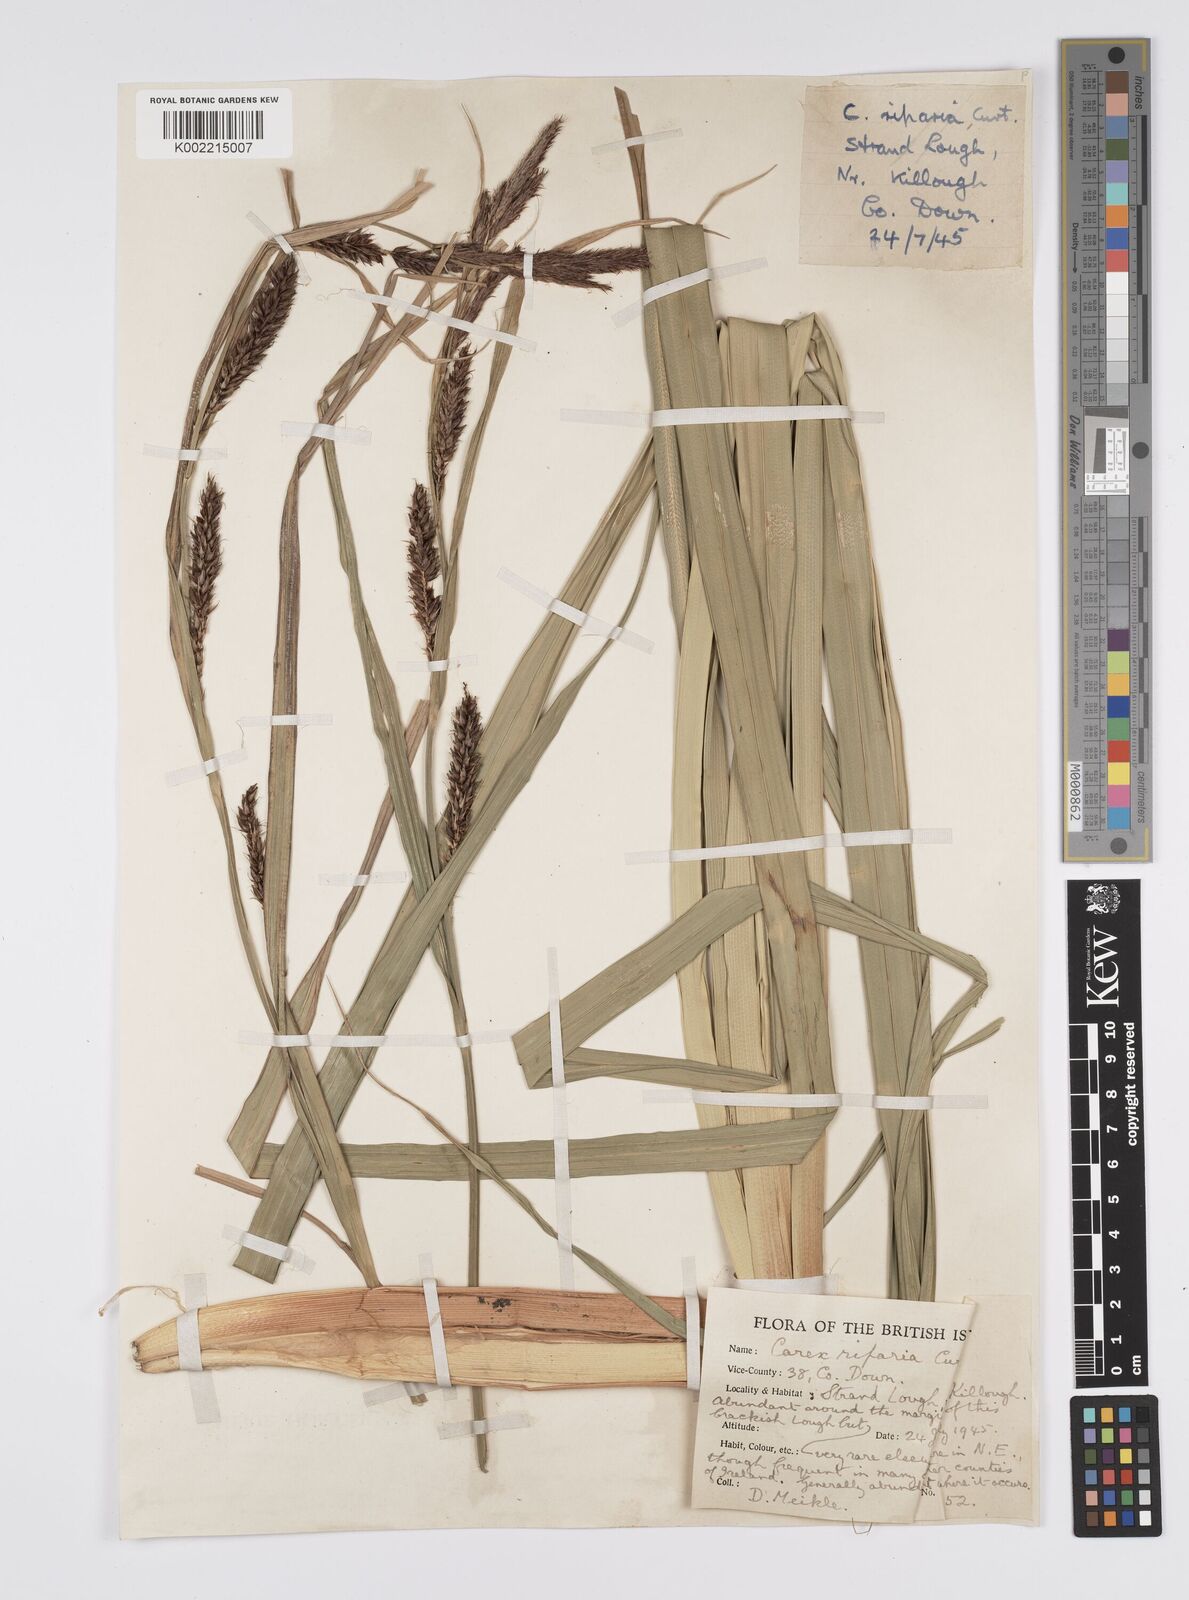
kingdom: Plantae
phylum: Tracheophyta
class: Liliopsida
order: Poales
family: Cyperaceae
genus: Carex
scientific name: Carex riparia
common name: Greater pond-sedge
